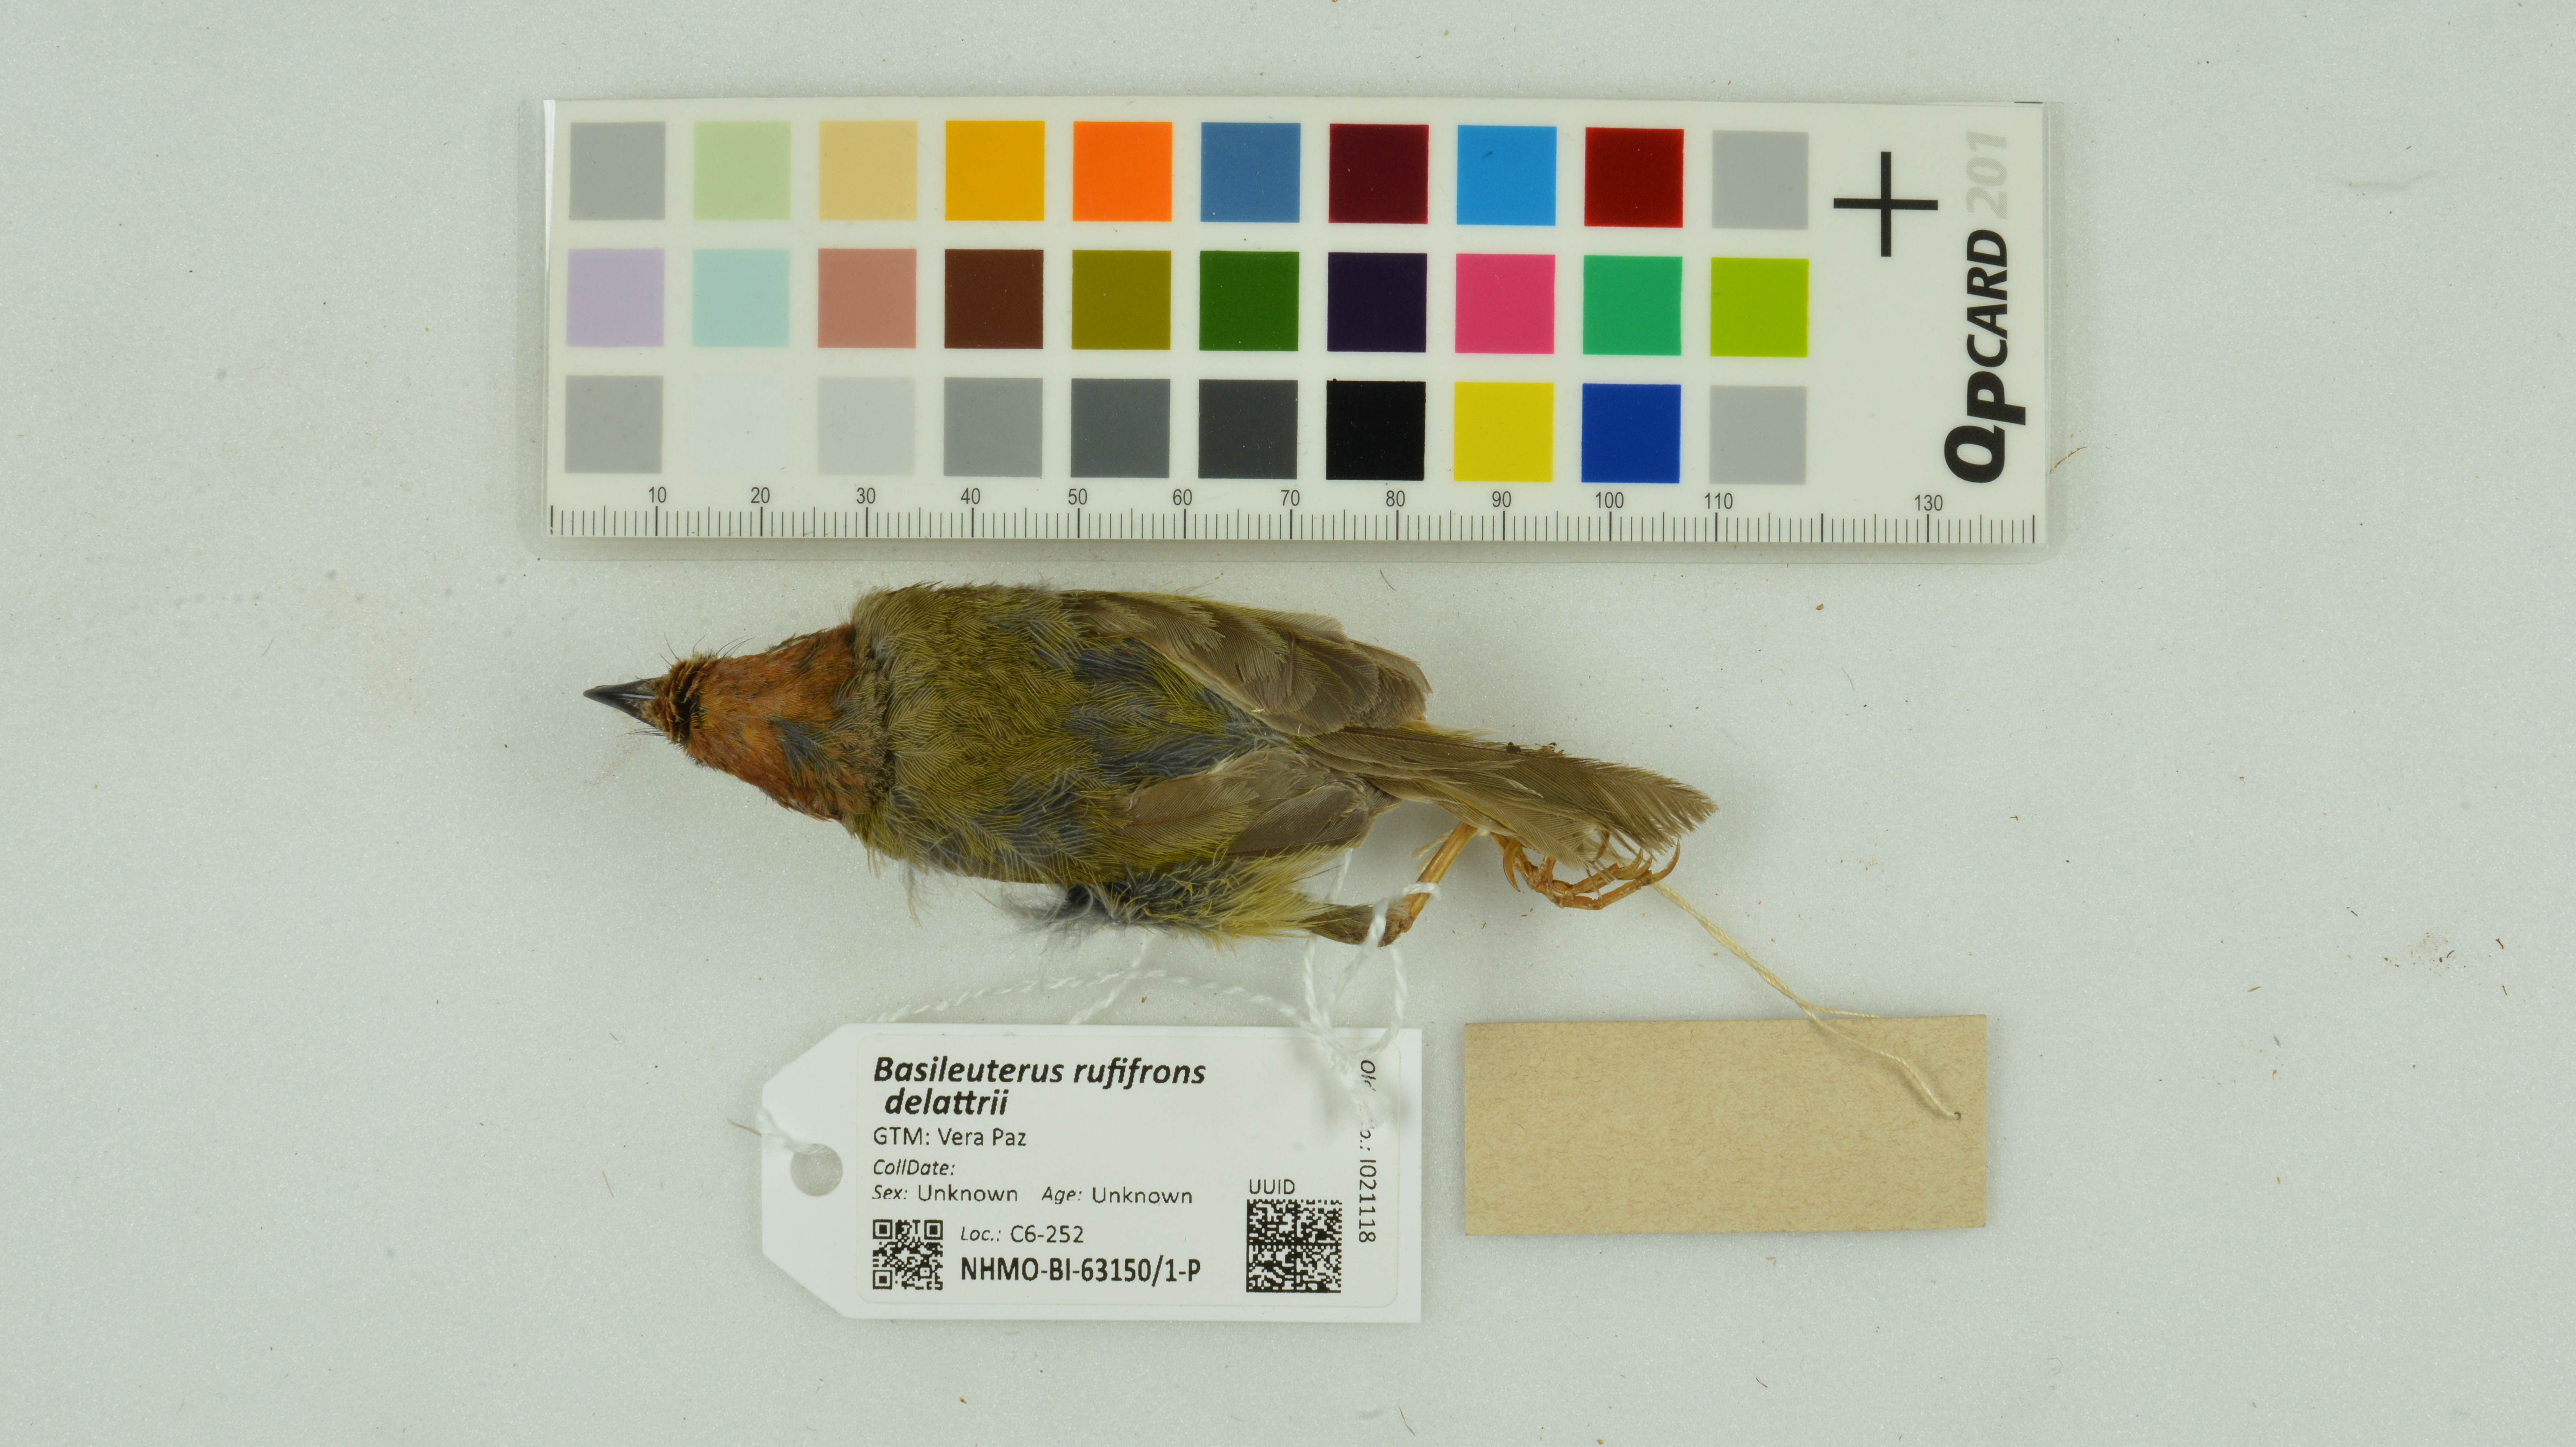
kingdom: Animalia
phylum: Chordata
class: Aves
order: Passeriformes
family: Parulidae
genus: Basileuterus
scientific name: Basileuterus rufifrons
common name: Rufous-capped warbler
